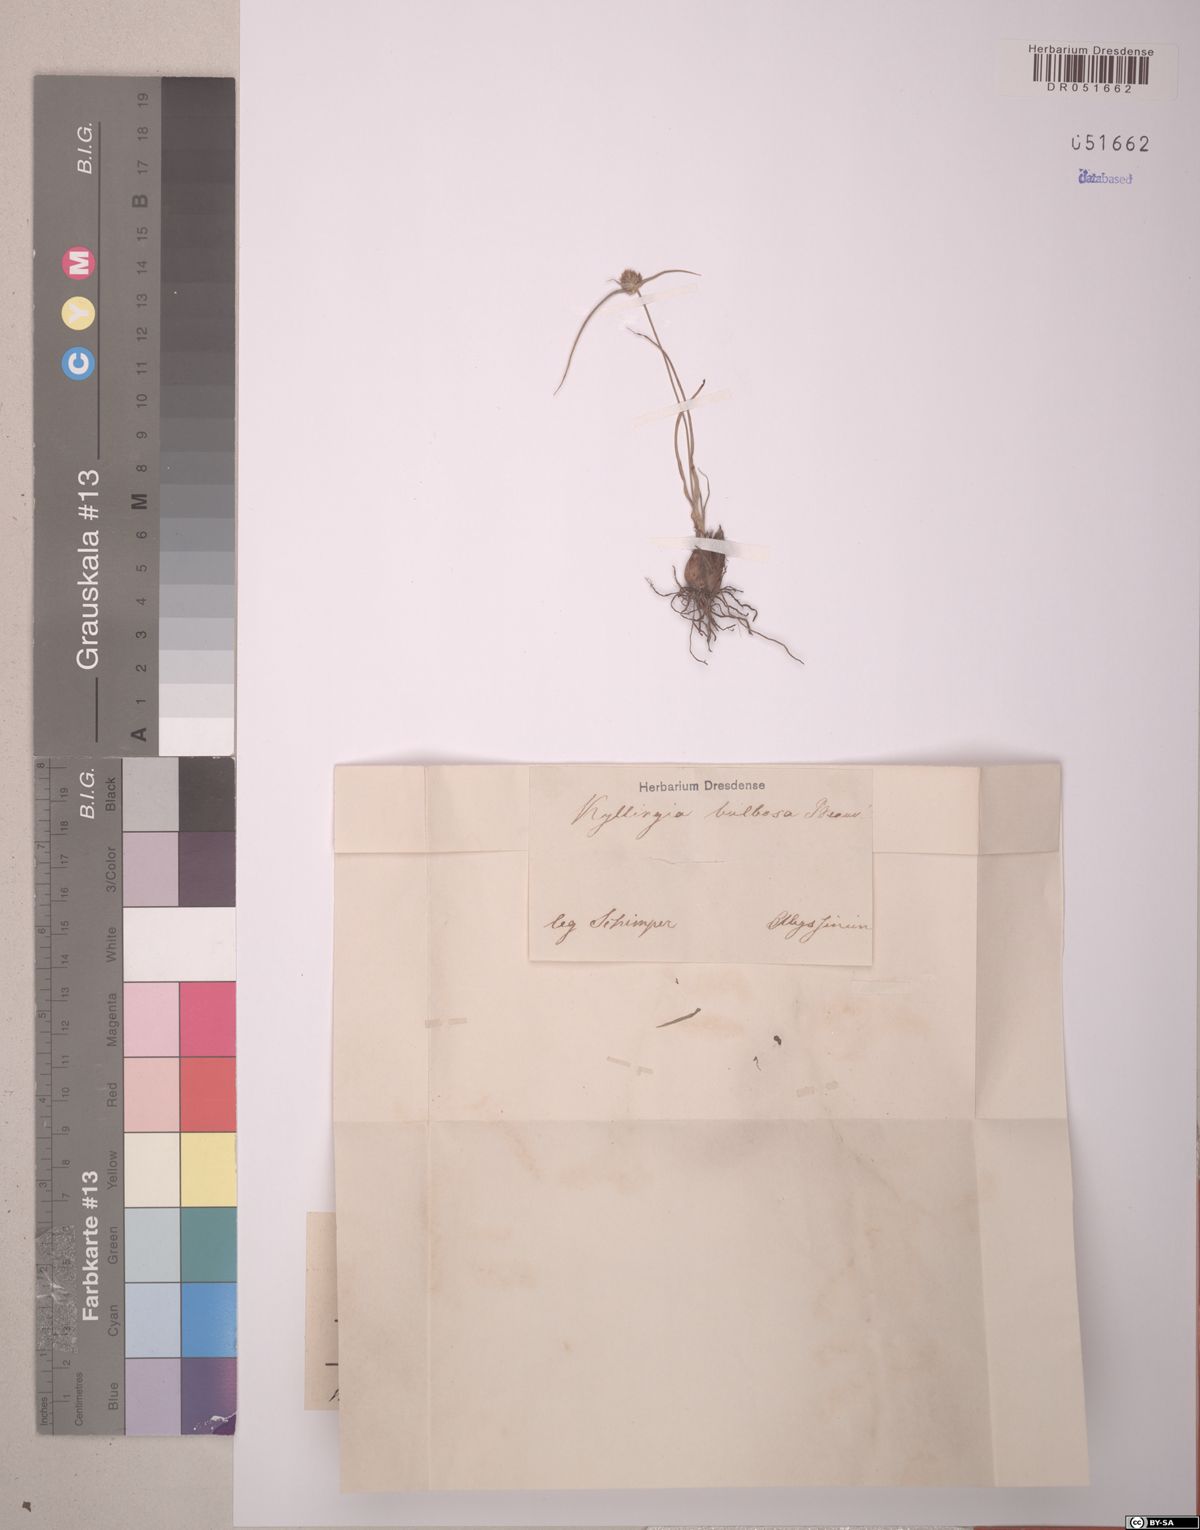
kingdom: Plantae
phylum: Tracheophyta
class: Liliopsida
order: Poales
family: Cyperaceae
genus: Cyperus
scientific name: Cyperus plateilema
